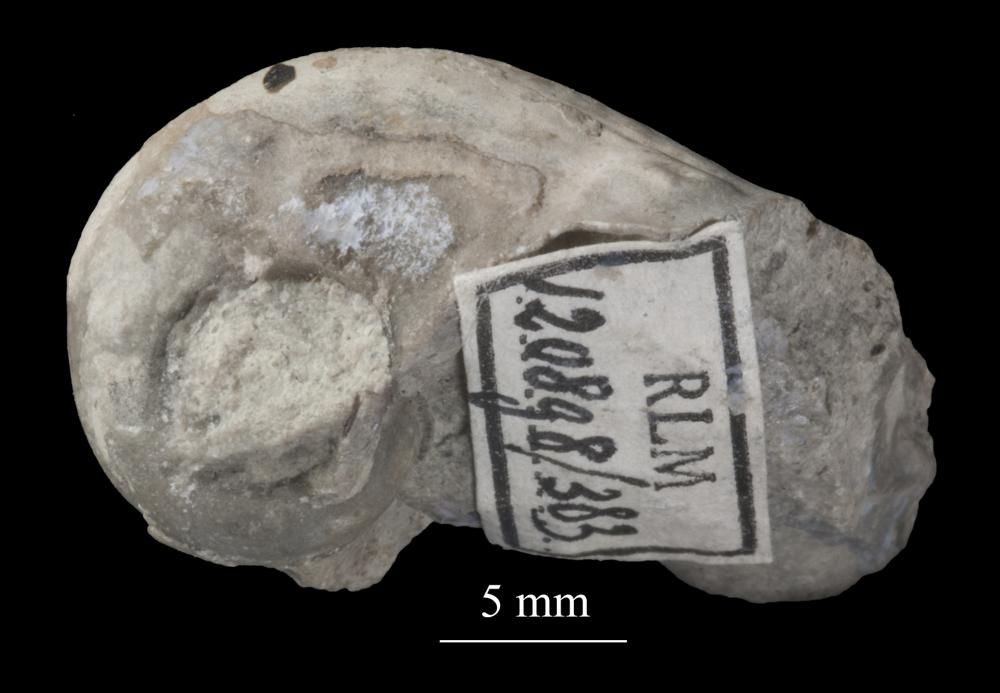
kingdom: Animalia
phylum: Mollusca
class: Gastropoda
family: Bucaniidae
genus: Salpingostoma
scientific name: Salpingostoma Bellerophon megalostoma
